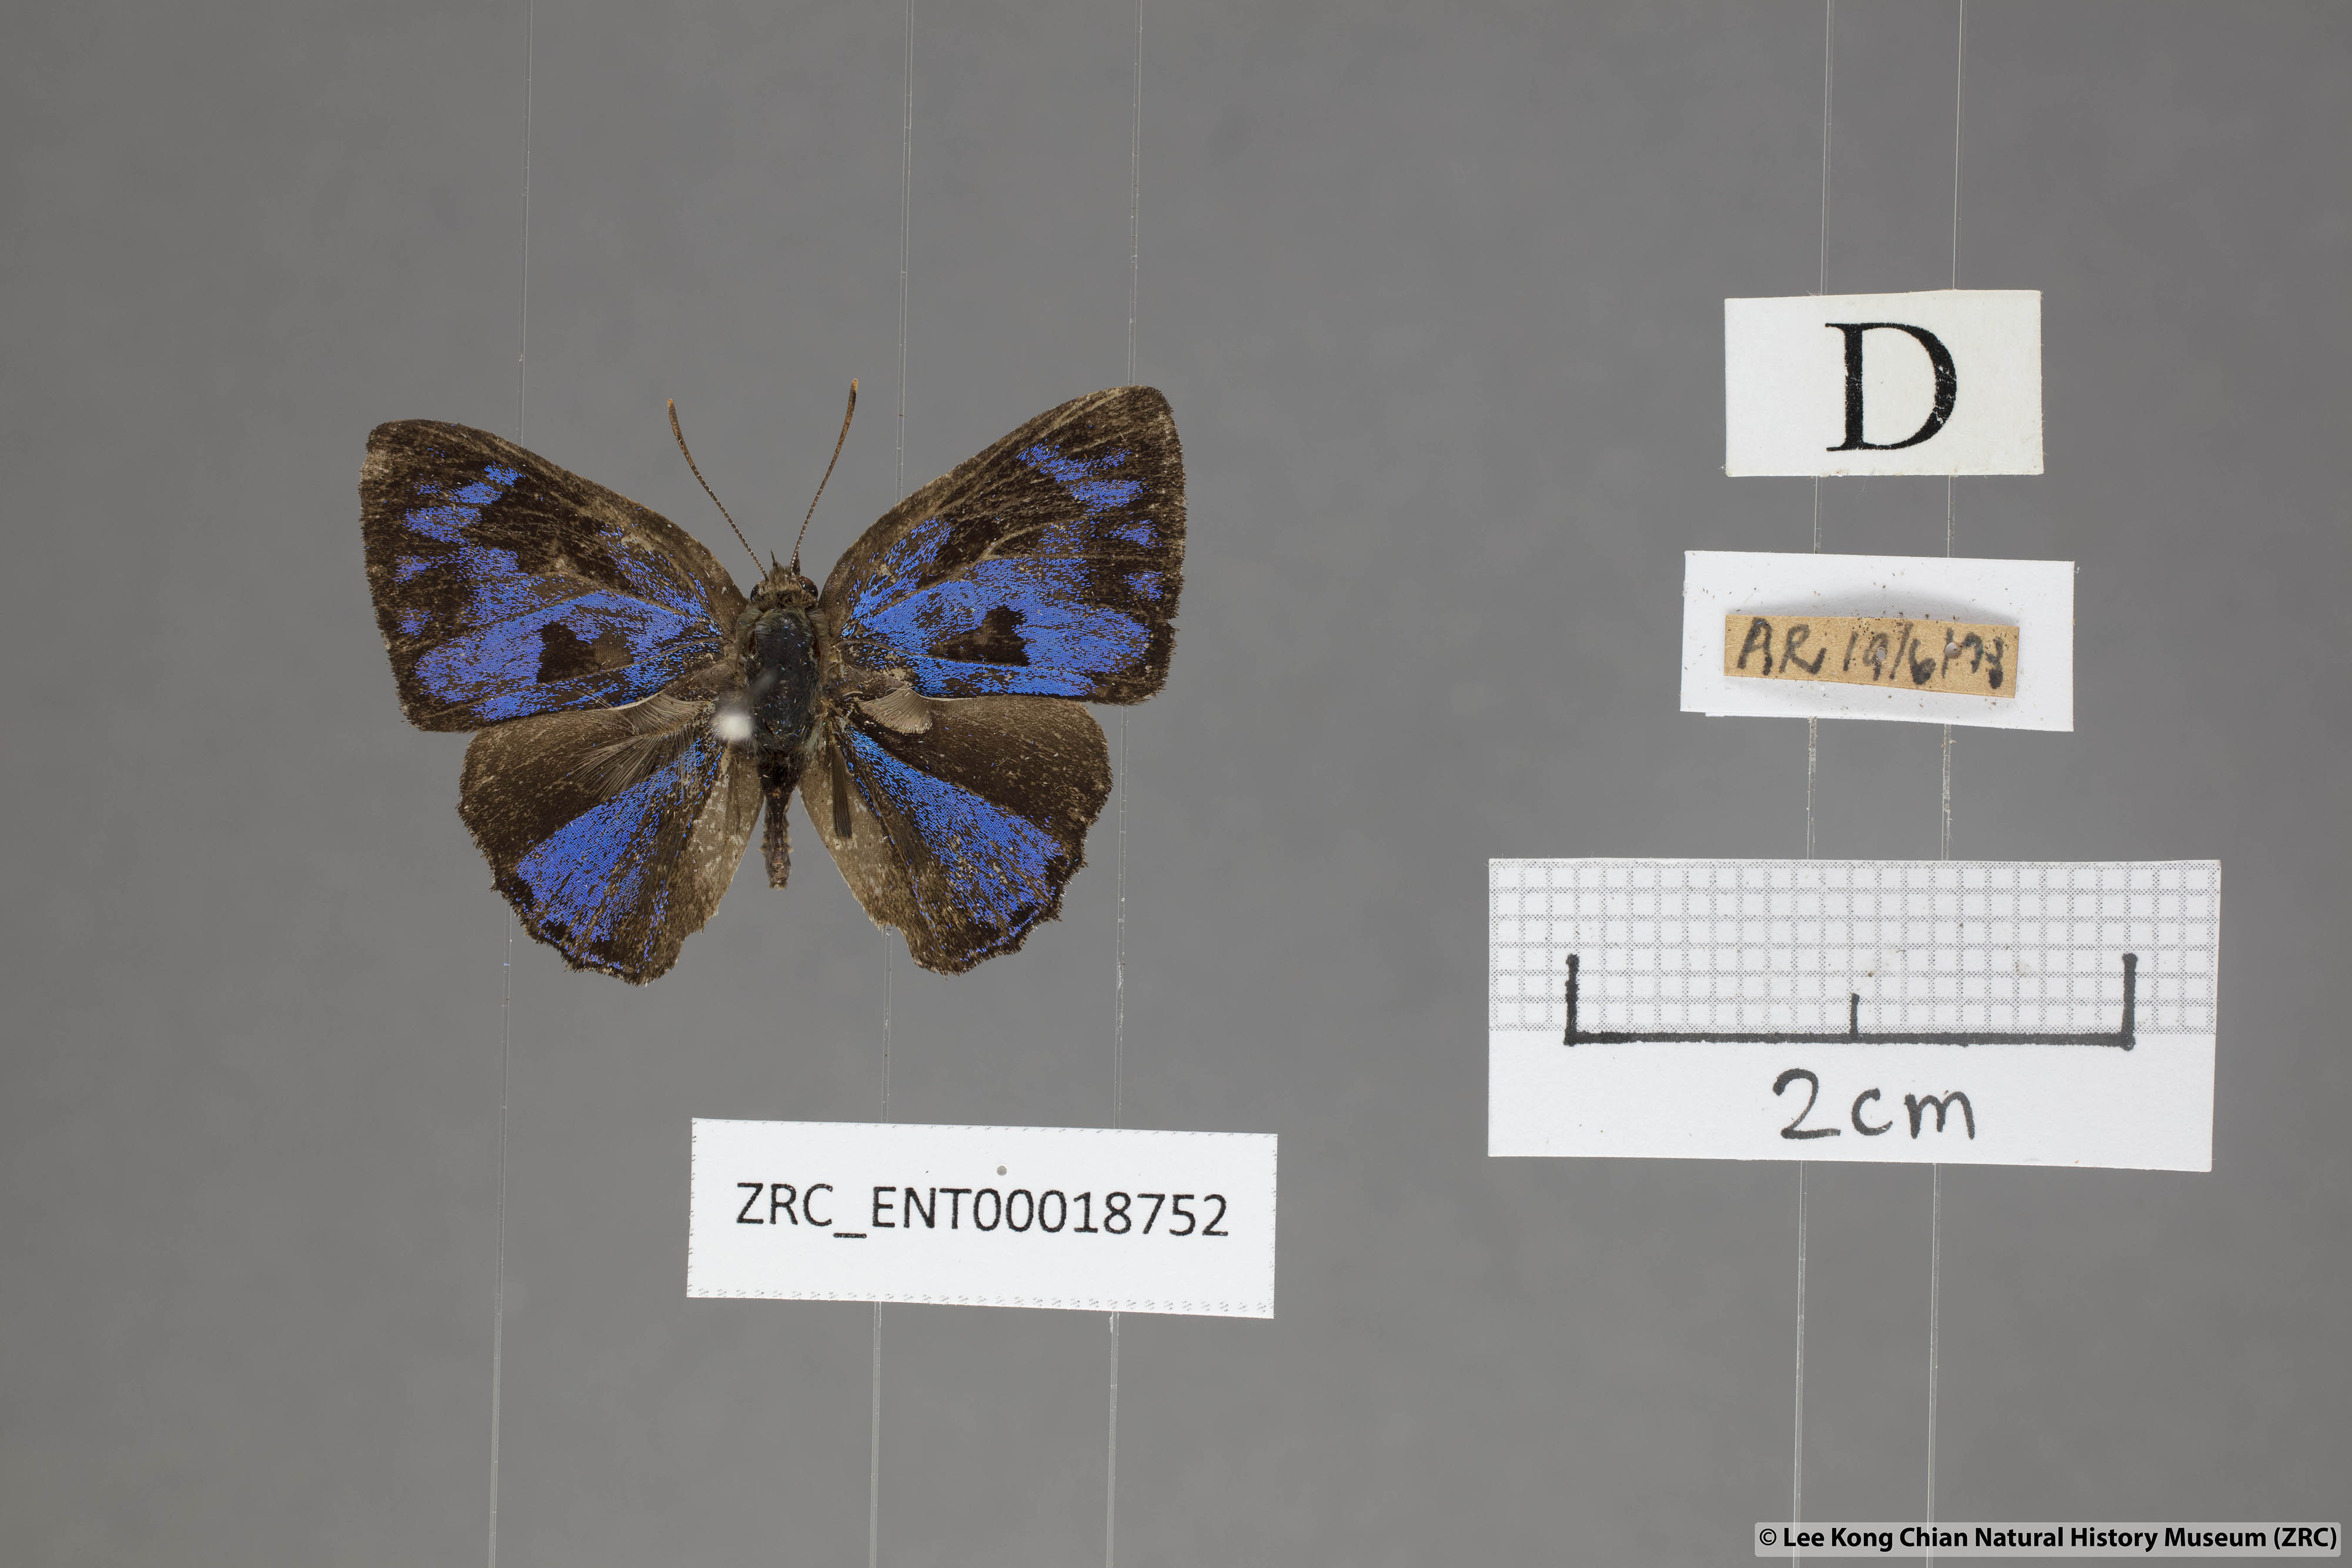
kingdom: Animalia
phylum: Arthropoda
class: Insecta
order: Lepidoptera
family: Lycaenidae
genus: Poritia
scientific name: Poritia erycinoides
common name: Blue gem
